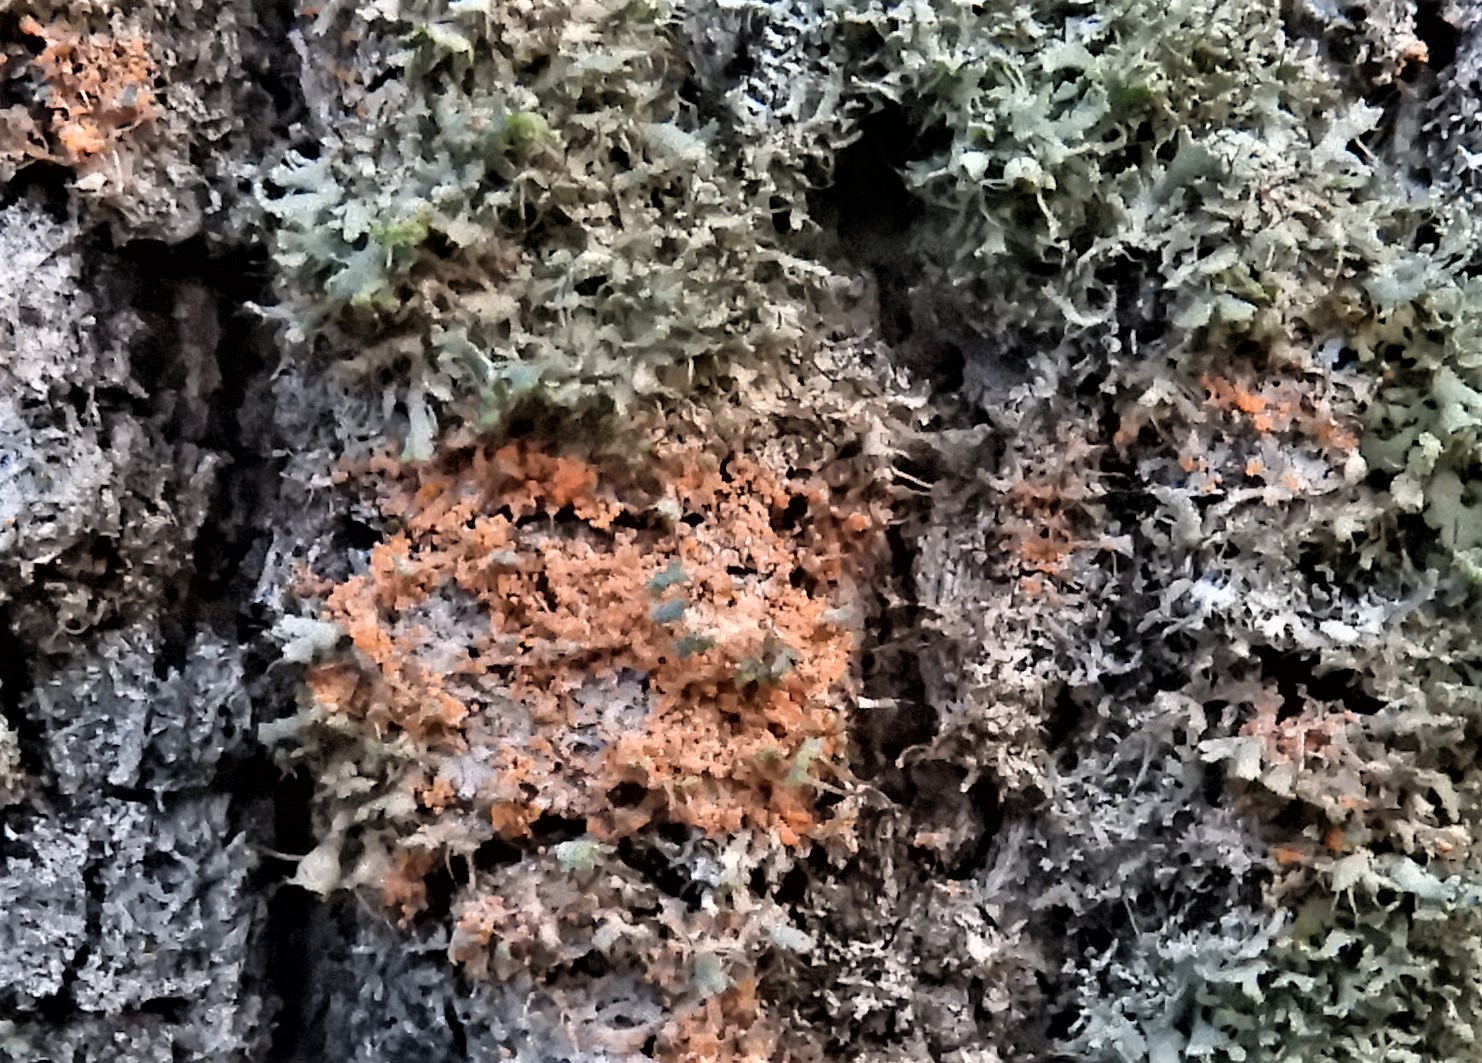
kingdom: Fungi
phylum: Basidiomycota
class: Agaricomycetes
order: Corticiales
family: Corticiaceae
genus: Erythricium
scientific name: Erythricium aurantiacum
